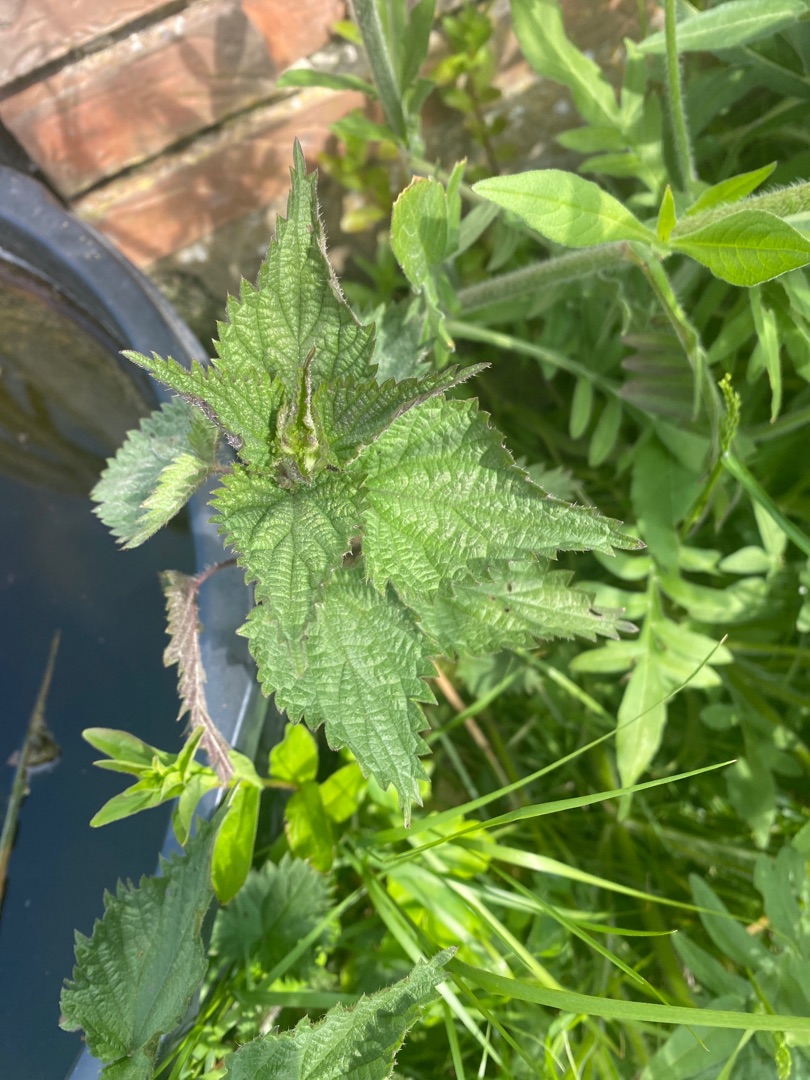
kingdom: Plantae
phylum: Tracheophyta
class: Magnoliopsida
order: Rosales
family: Urticaceae
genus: Urtica
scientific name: Urtica dioica
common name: Stor nælde
